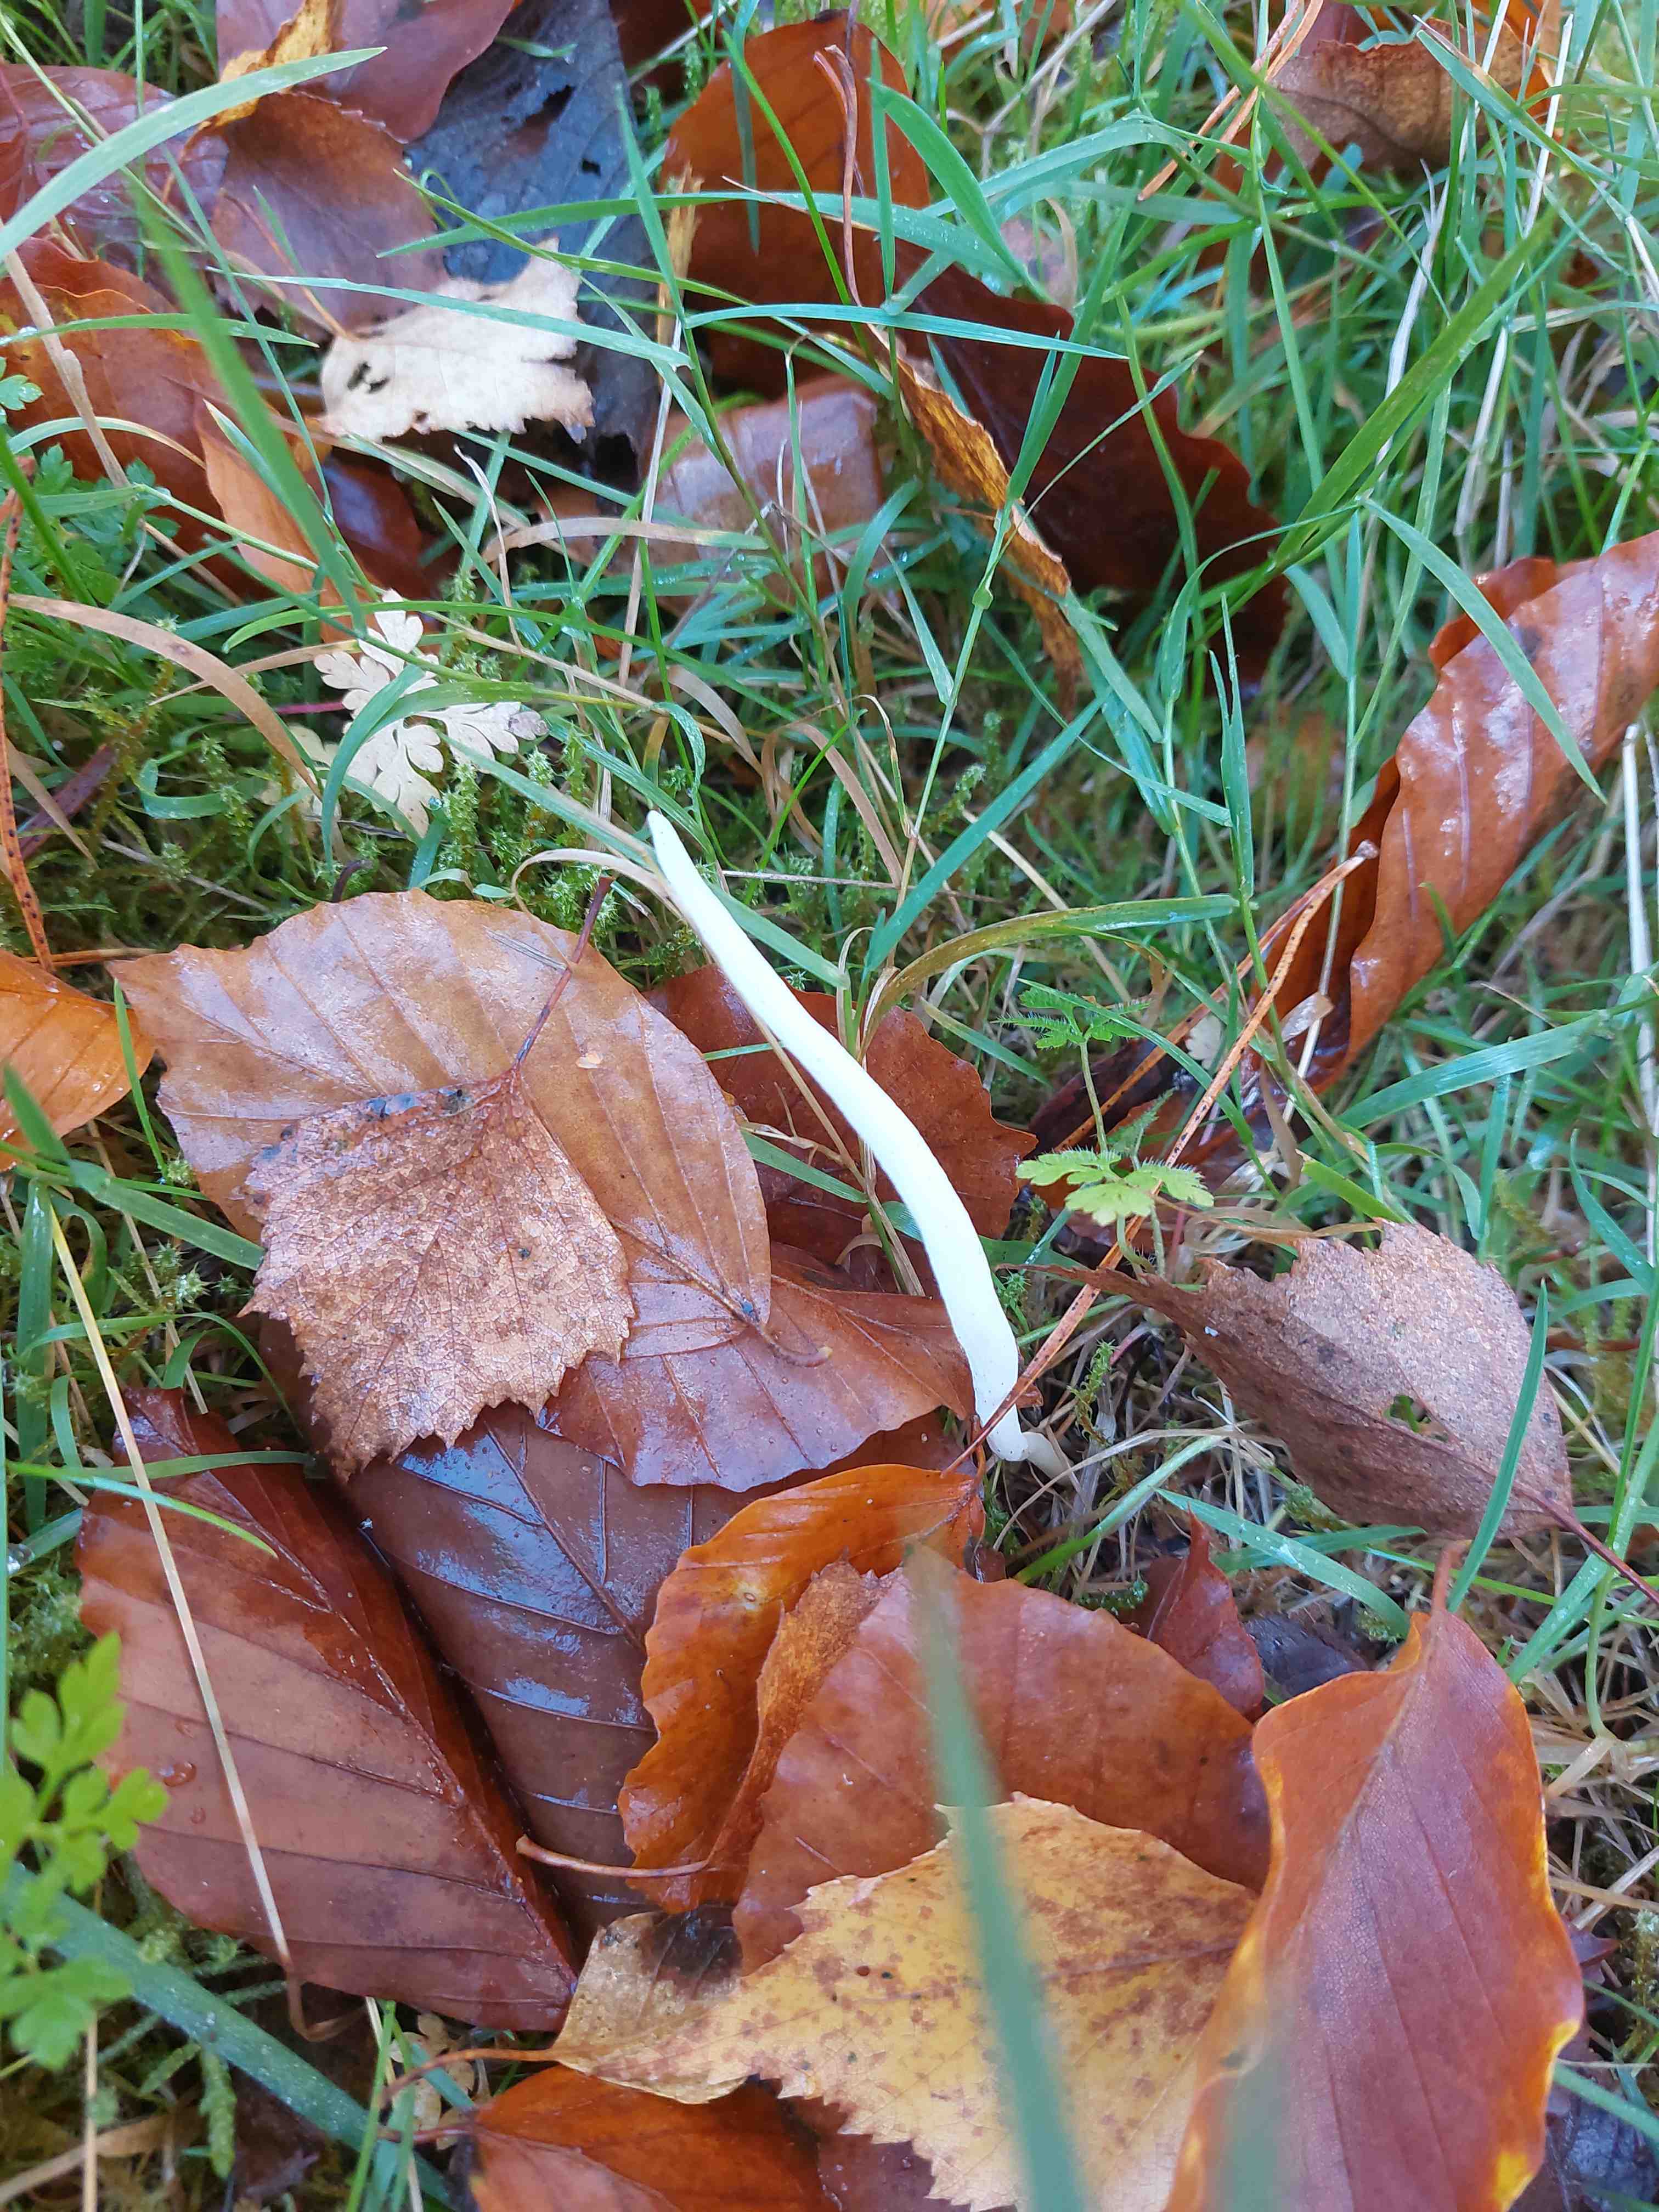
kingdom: Fungi
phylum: Basidiomycota
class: Agaricomycetes
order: Agaricales
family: Clavariaceae
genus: Clavaria
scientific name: Clavaria
